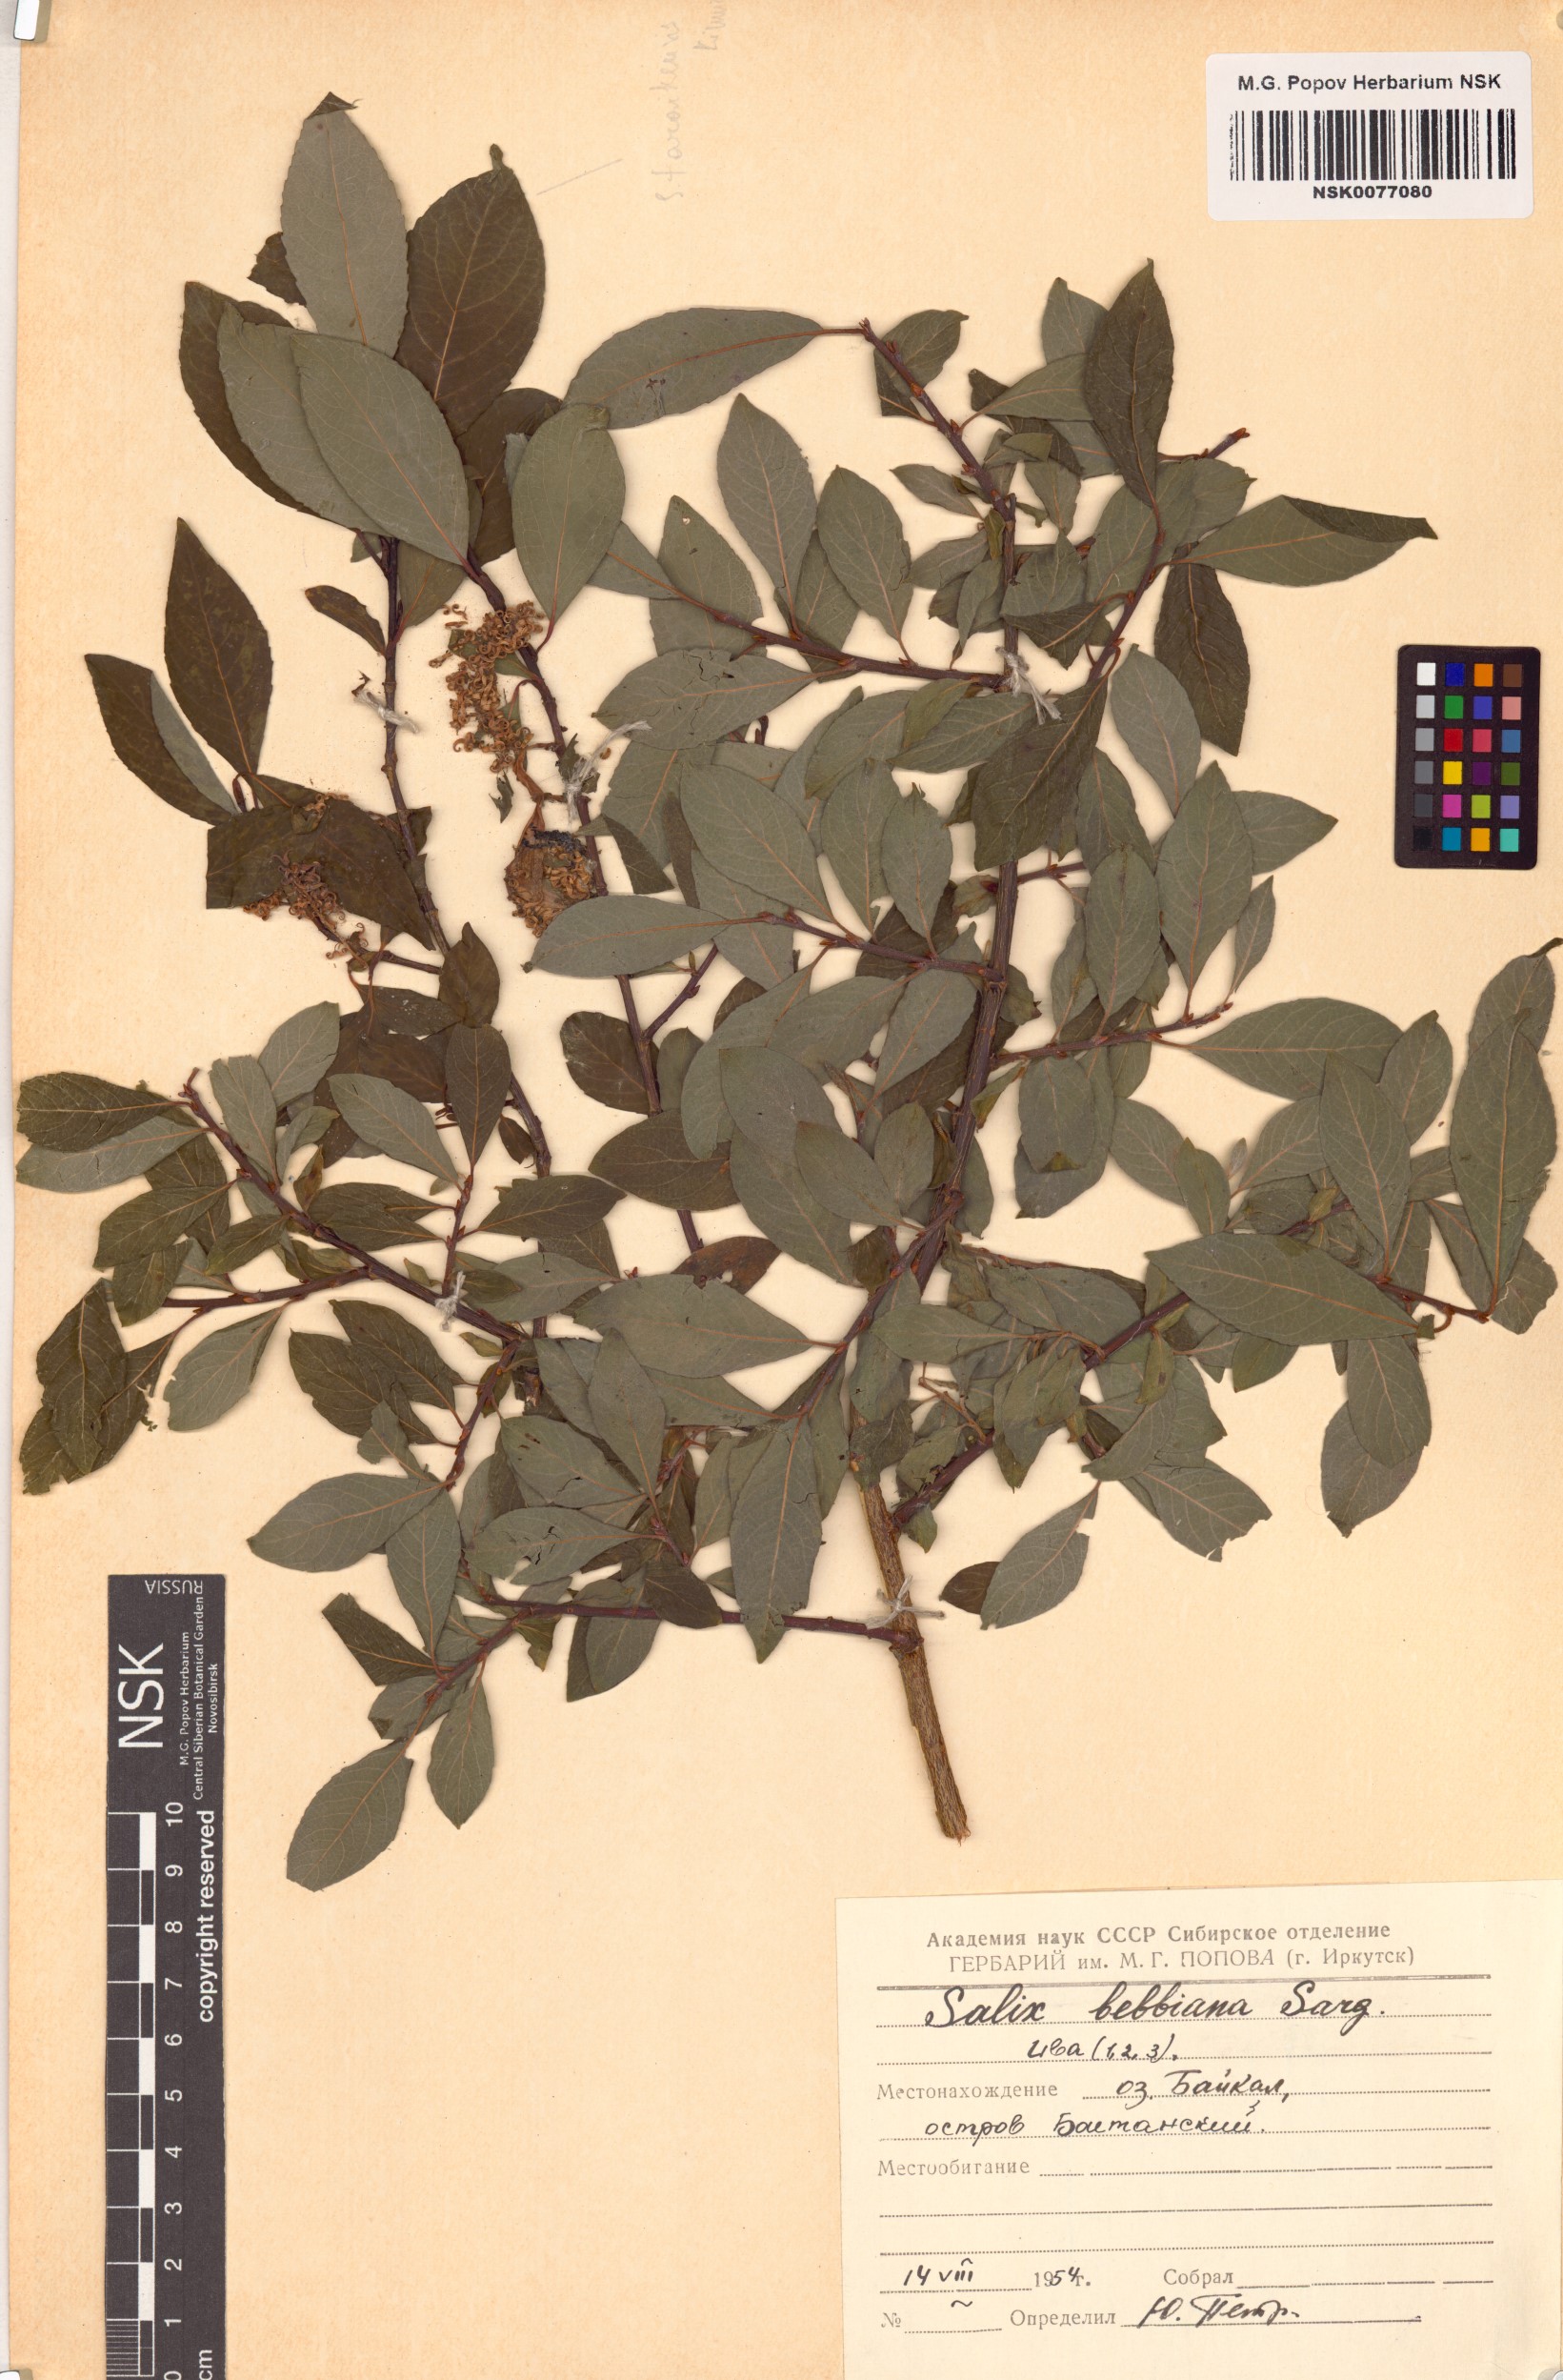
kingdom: Plantae
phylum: Tracheophyta
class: Magnoliopsida
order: Malpighiales
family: Salicaceae
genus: Salix
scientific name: Salix bebbiana
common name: Bebb's willow
